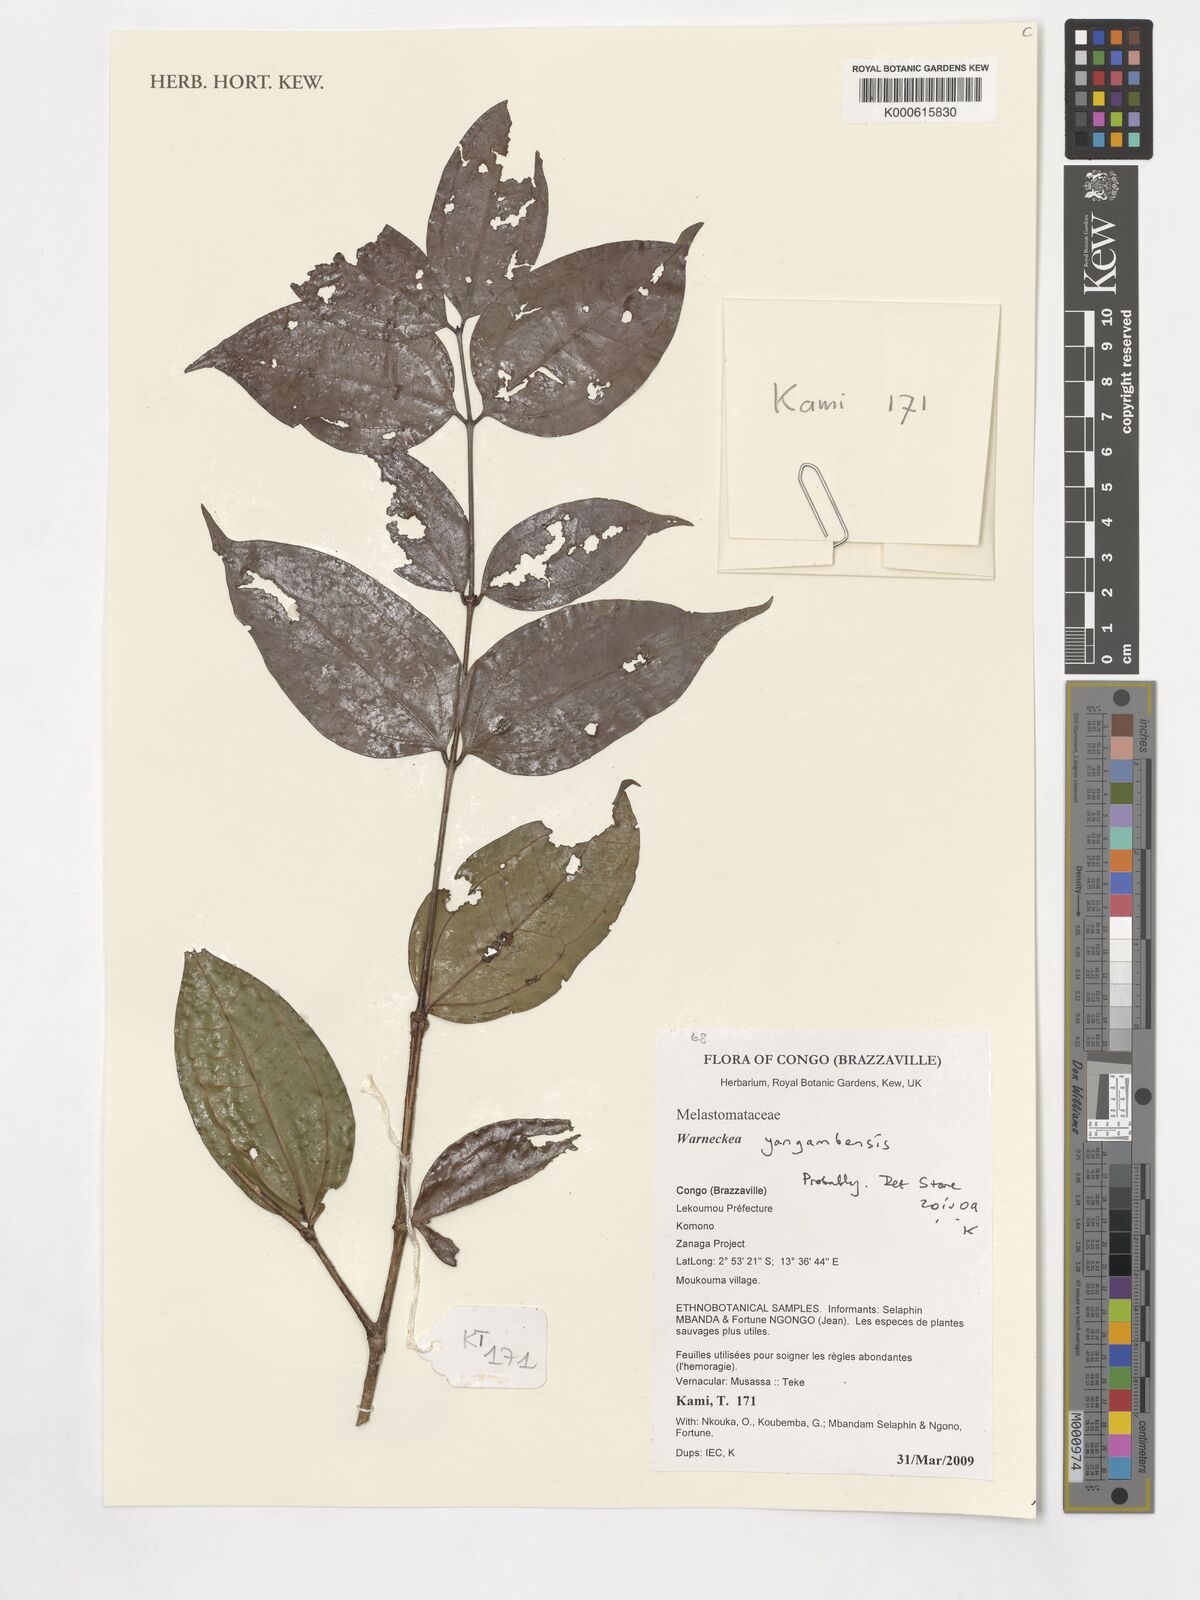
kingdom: Plantae
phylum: Tracheophyta
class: Magnoliopsida
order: Myrtales
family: Melastomataceae
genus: Warneckea
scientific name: Warneckea yangambensis
